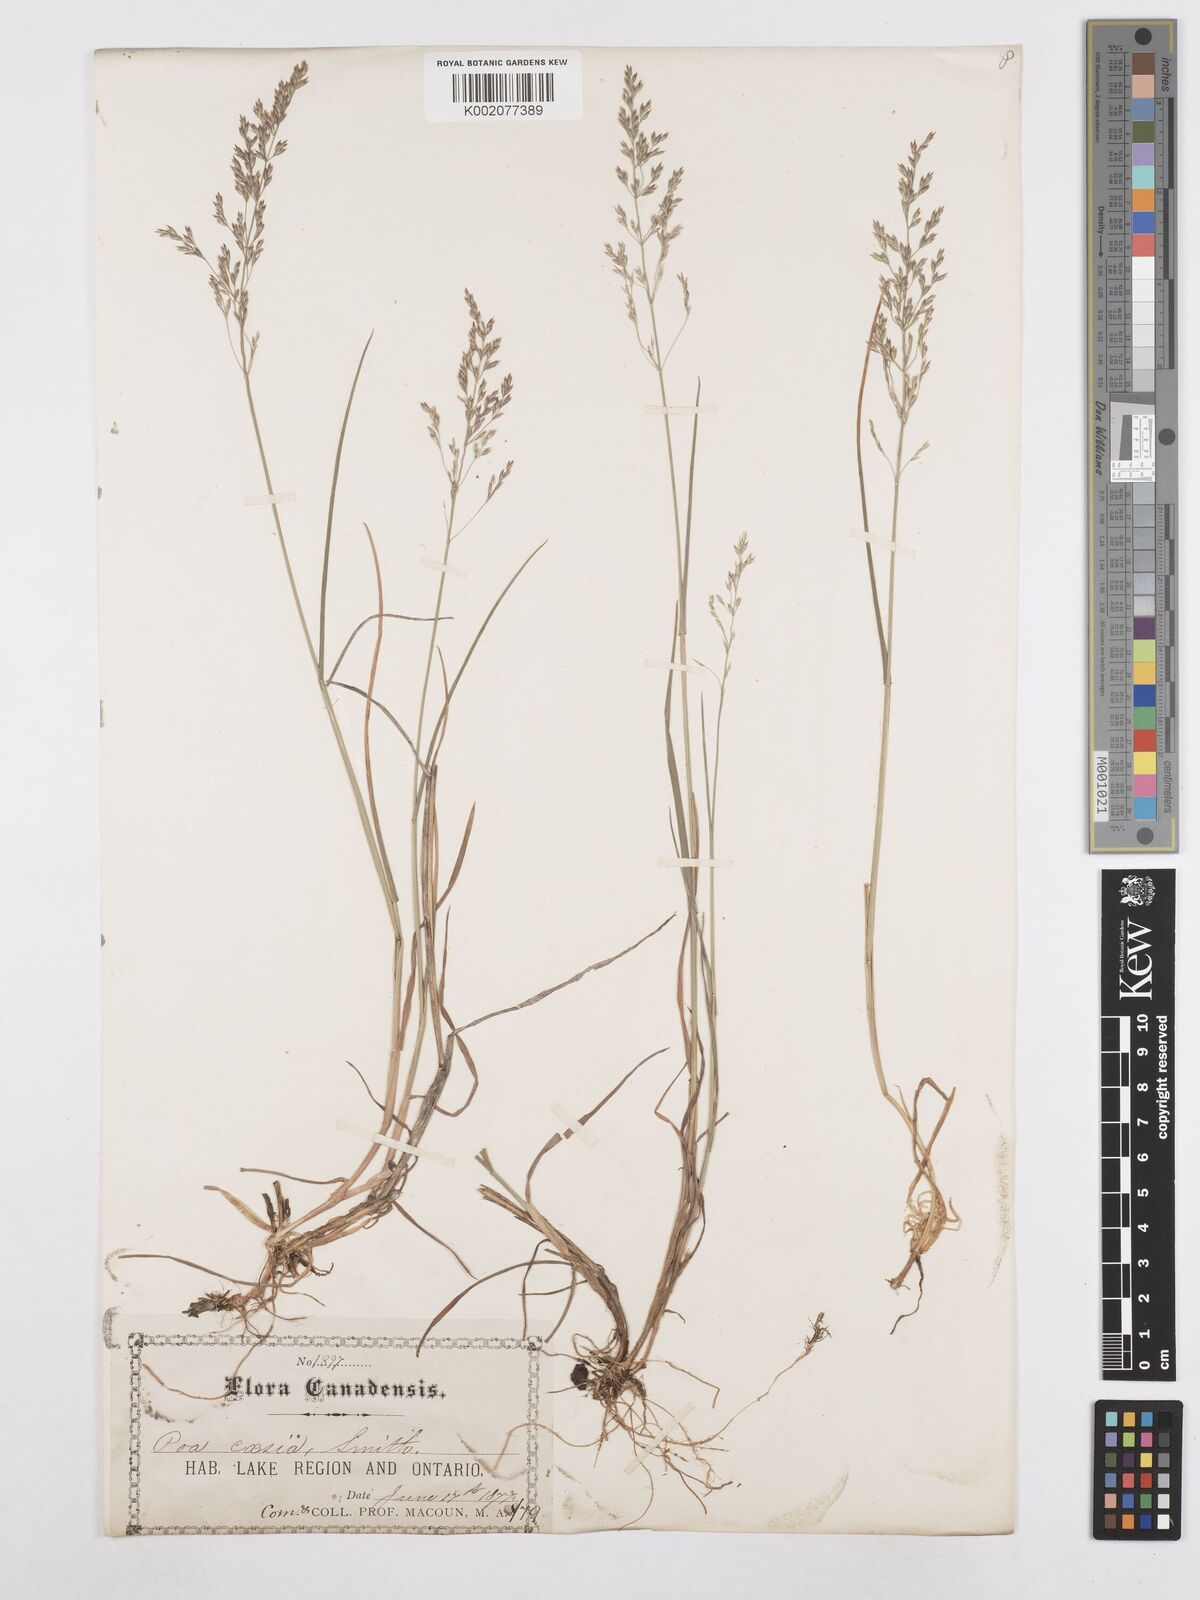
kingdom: Plantae
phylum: Tracheophyta
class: Liliopsida
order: Poales
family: Poaceae
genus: Poa
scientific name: Poa glauca
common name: Glaucous bluegrass
